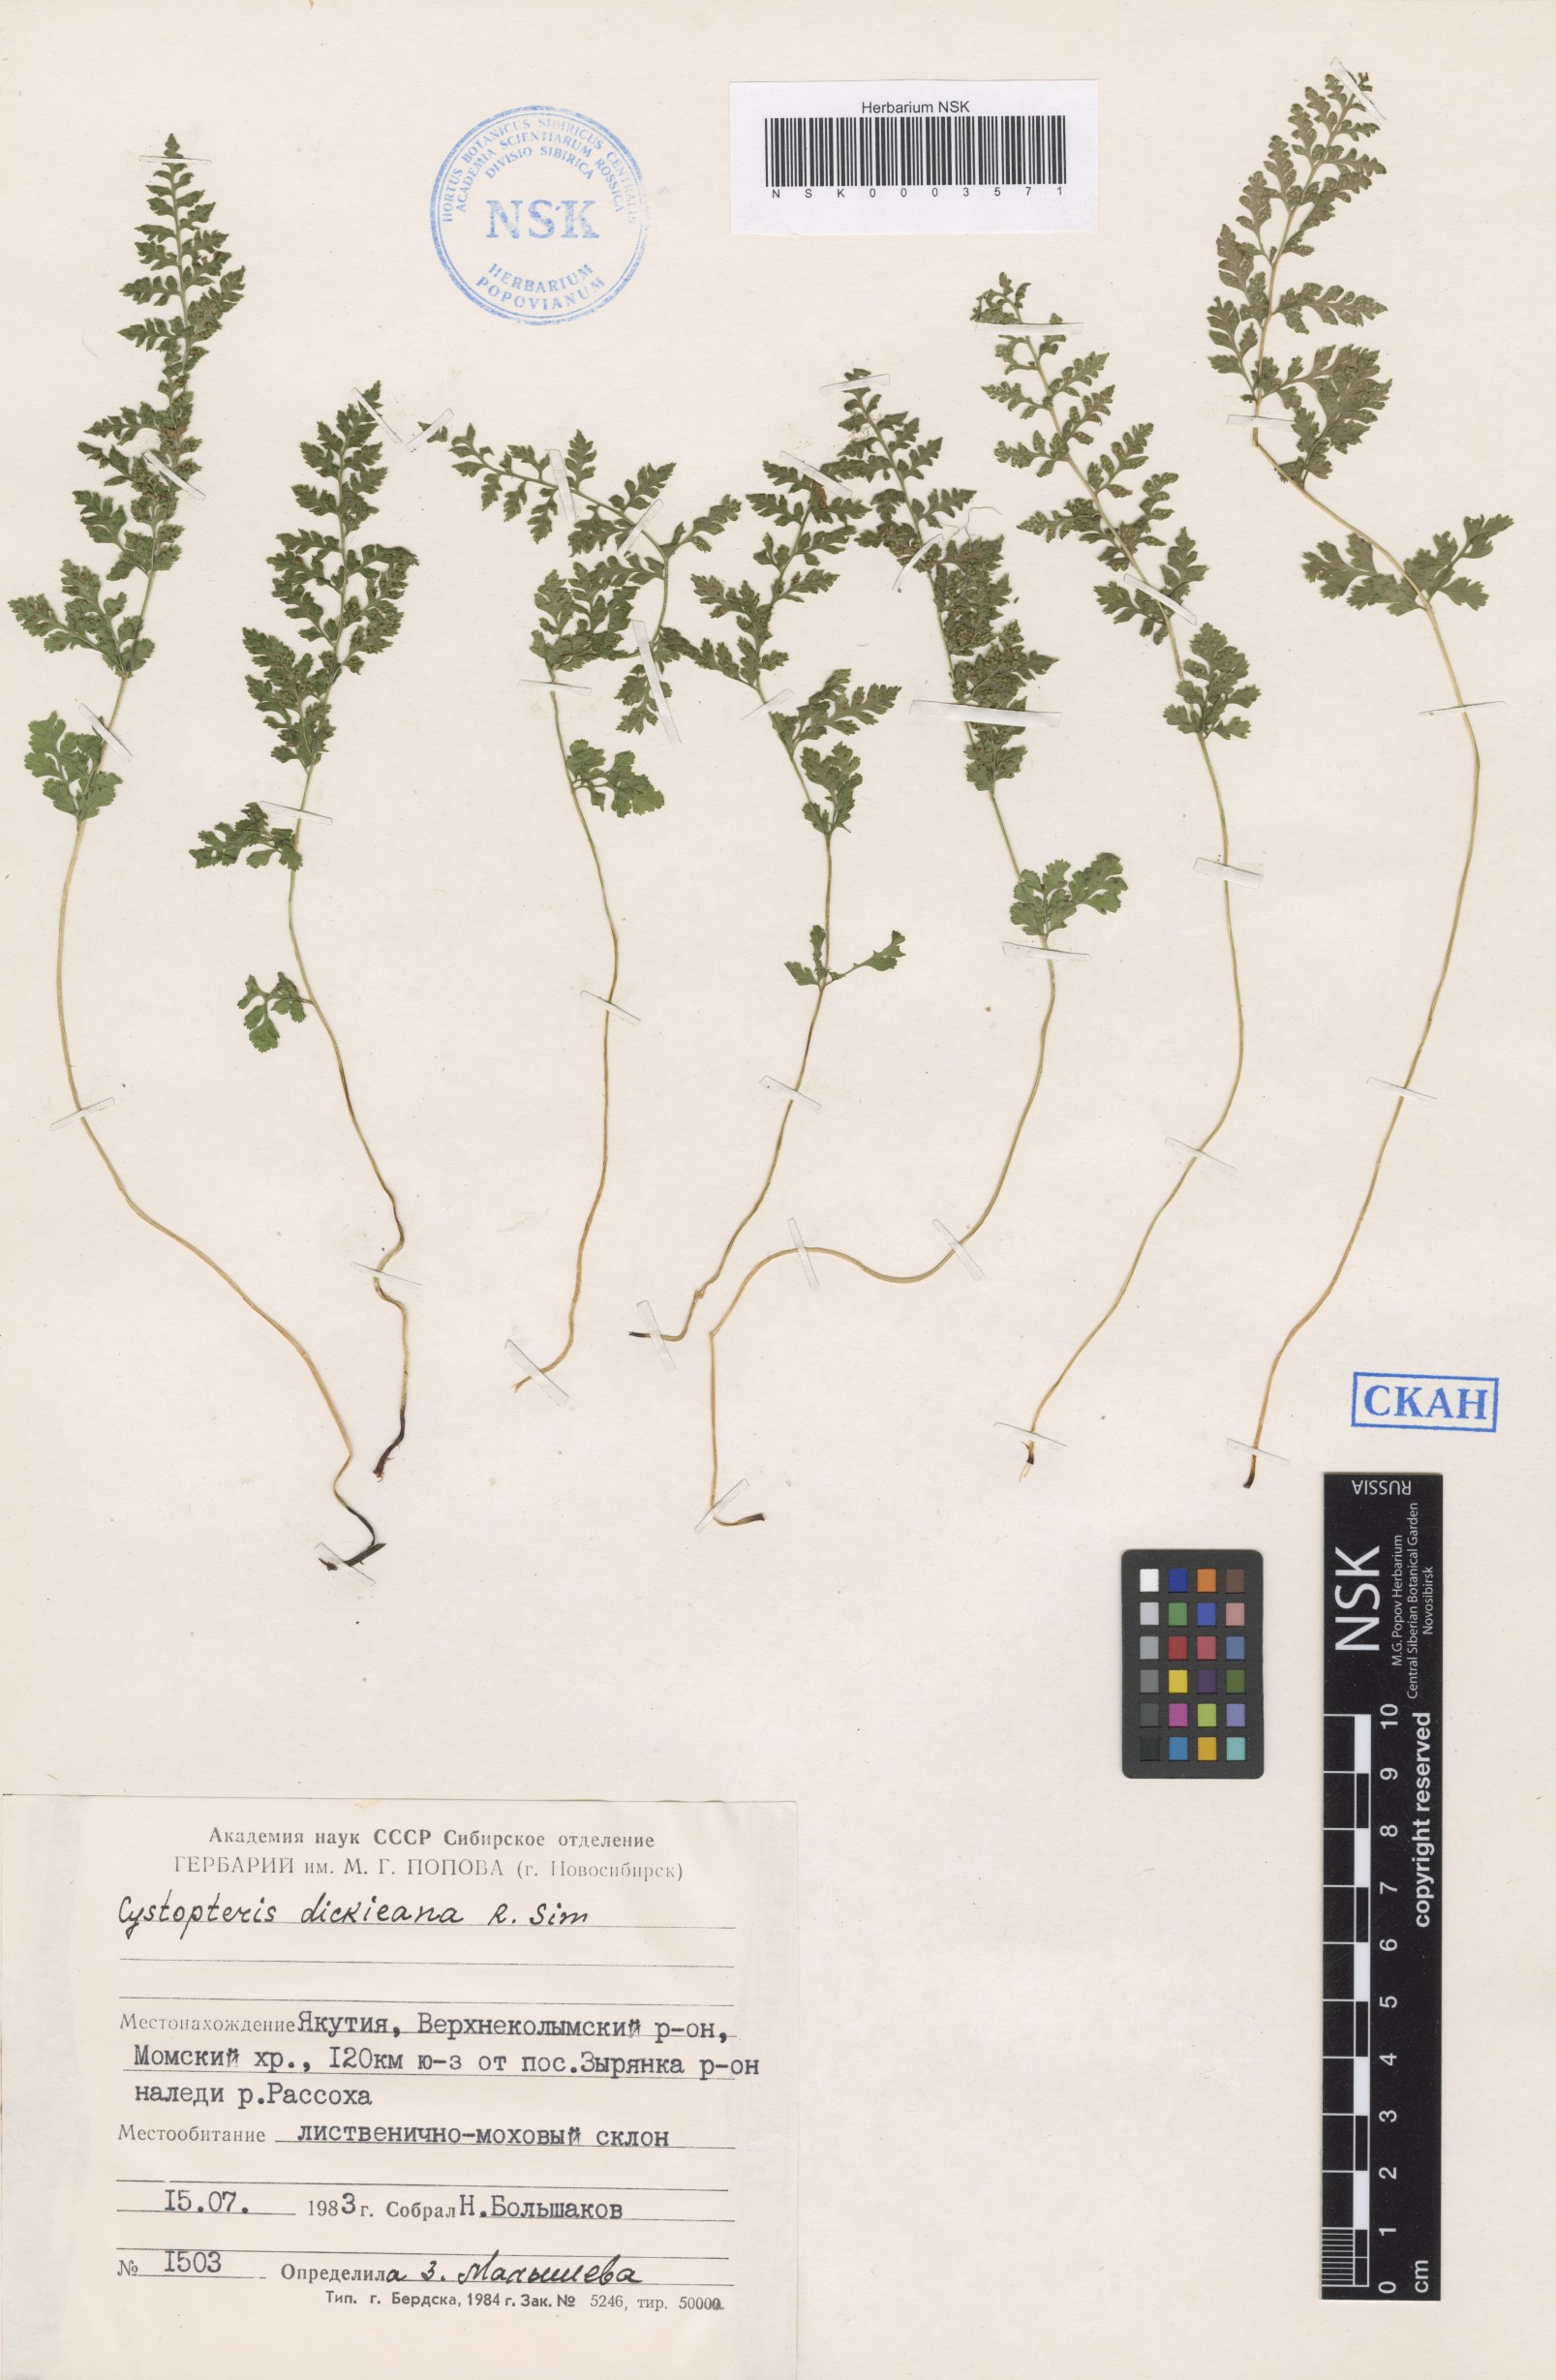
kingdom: Plantae
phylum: Tracheophyta
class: Polypodiopsida
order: Polypodiales
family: Cystopteridaceae
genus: Cystopteris
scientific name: Cystopteris dickieana
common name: Dickie's bladder-fern
